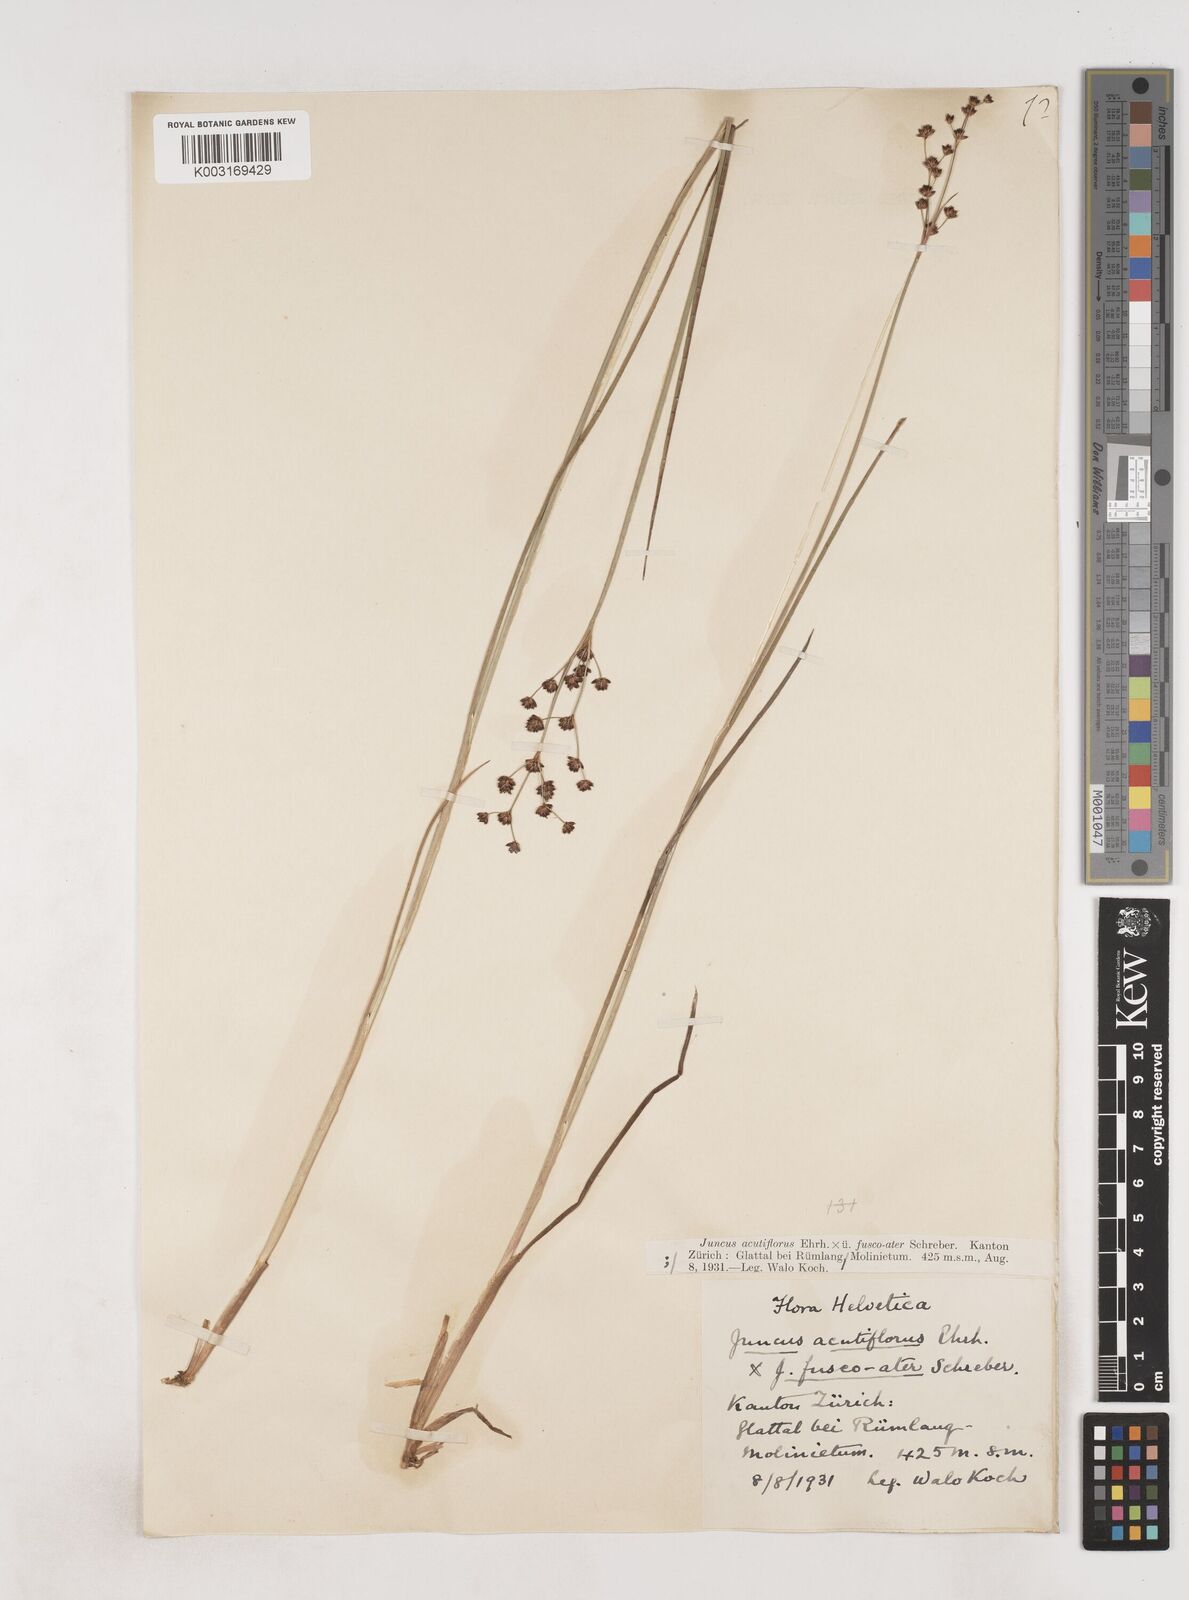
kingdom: Plantae
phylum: Tracheophyta
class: Liliopsida
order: Poales
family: Juncaceae
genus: Juncus
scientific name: Juncus acutiflorus
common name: Sharp-flowered rush
